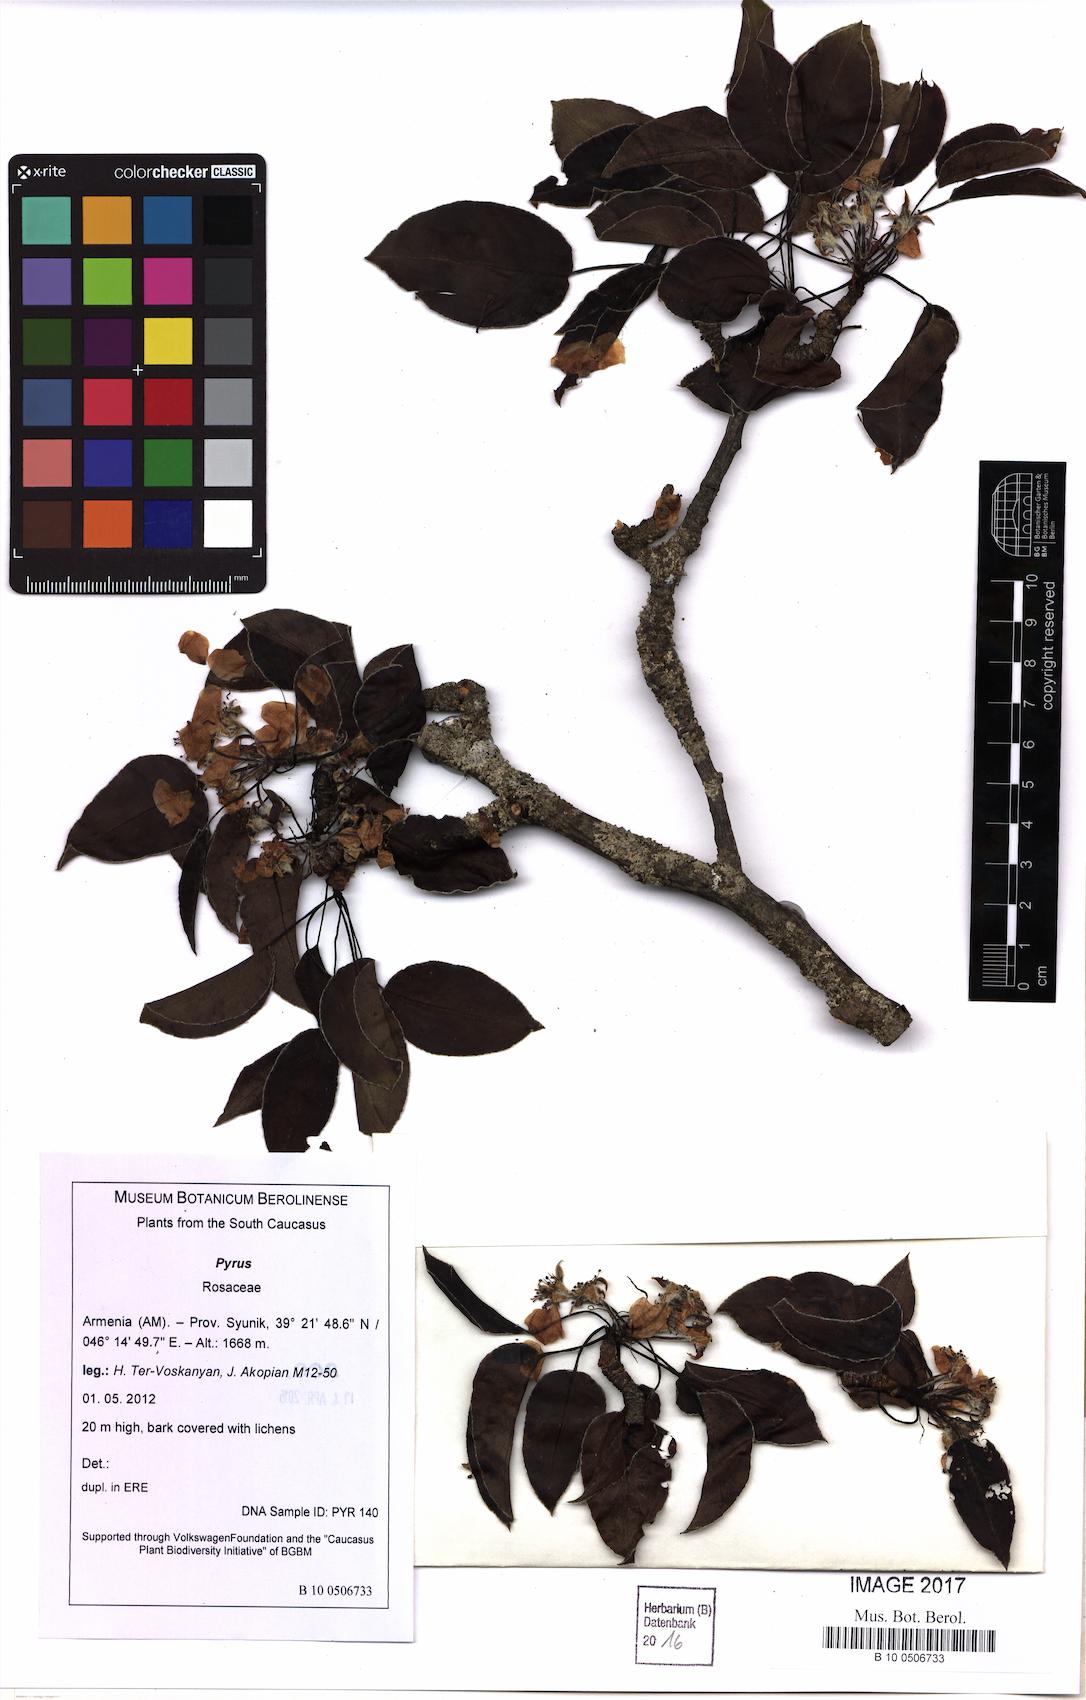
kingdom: Plantae
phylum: Tracheophyta
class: Magnoliopsida
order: Rosales
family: Rosaceae
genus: Pyrus
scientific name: Pyrus
